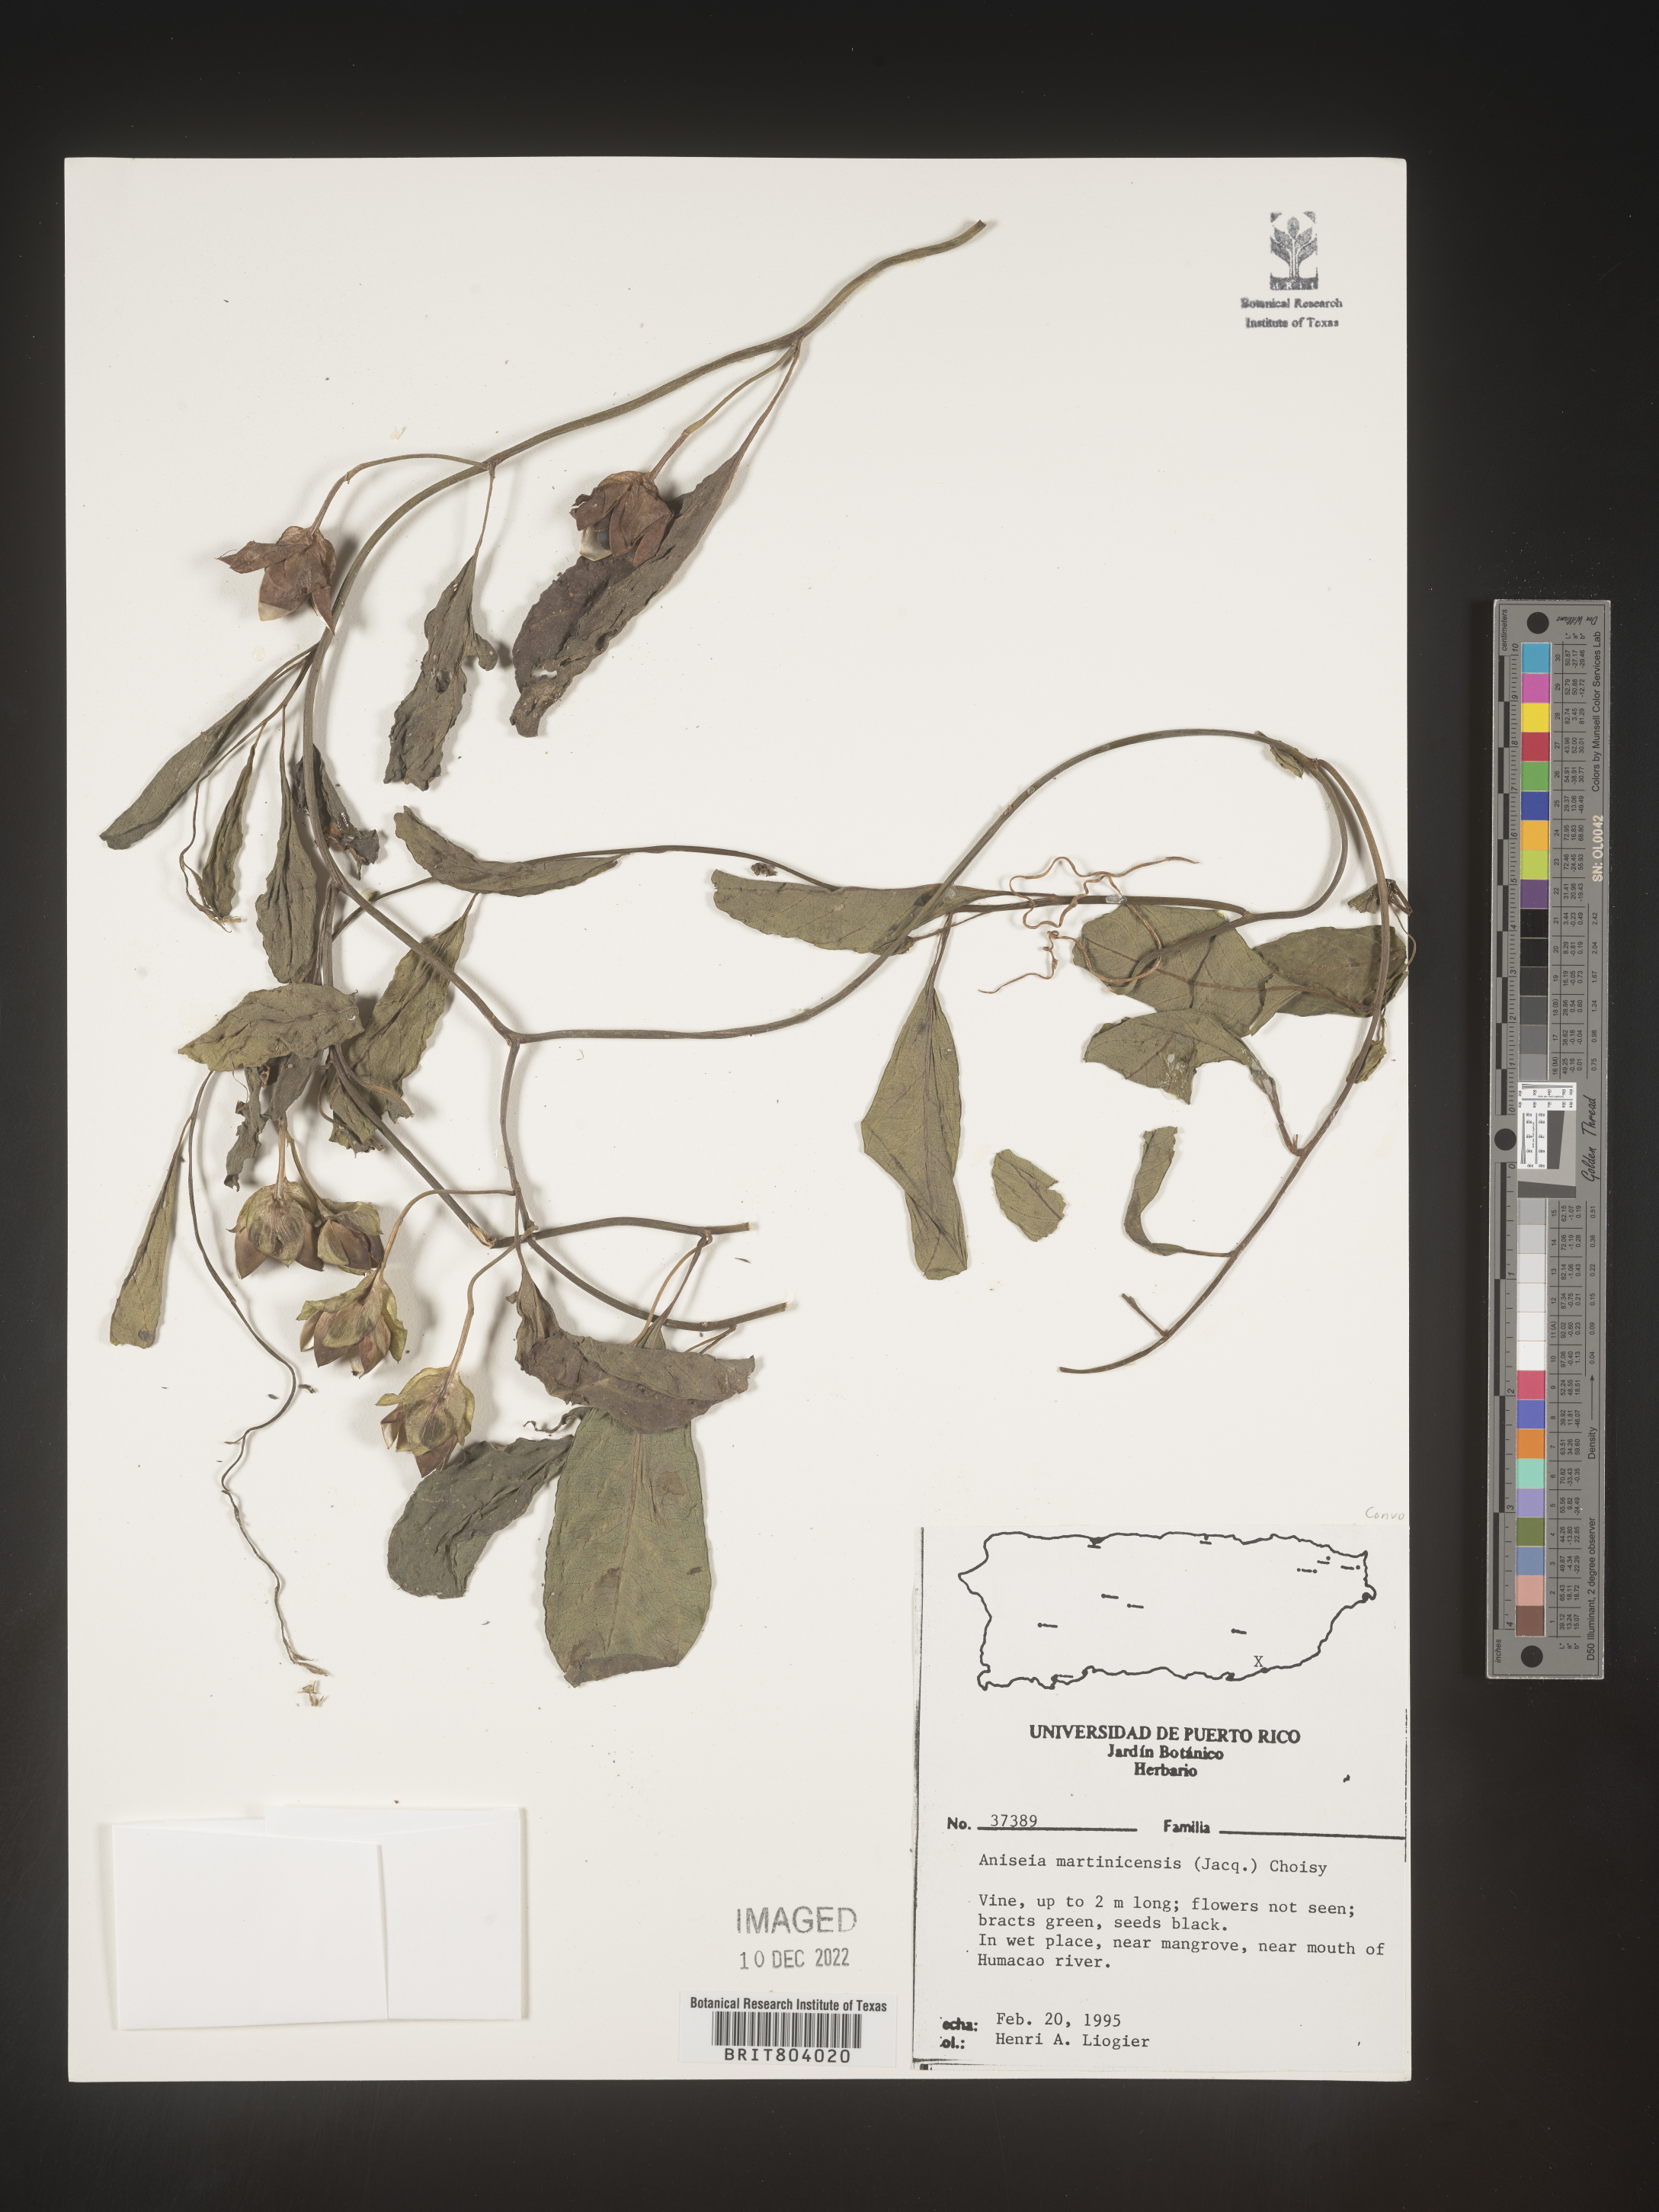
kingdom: Plantae
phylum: Tracheophyta
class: Magnoliopsida
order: Solanales
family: Convolvulaceae
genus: Aniseia
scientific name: Aniseia
